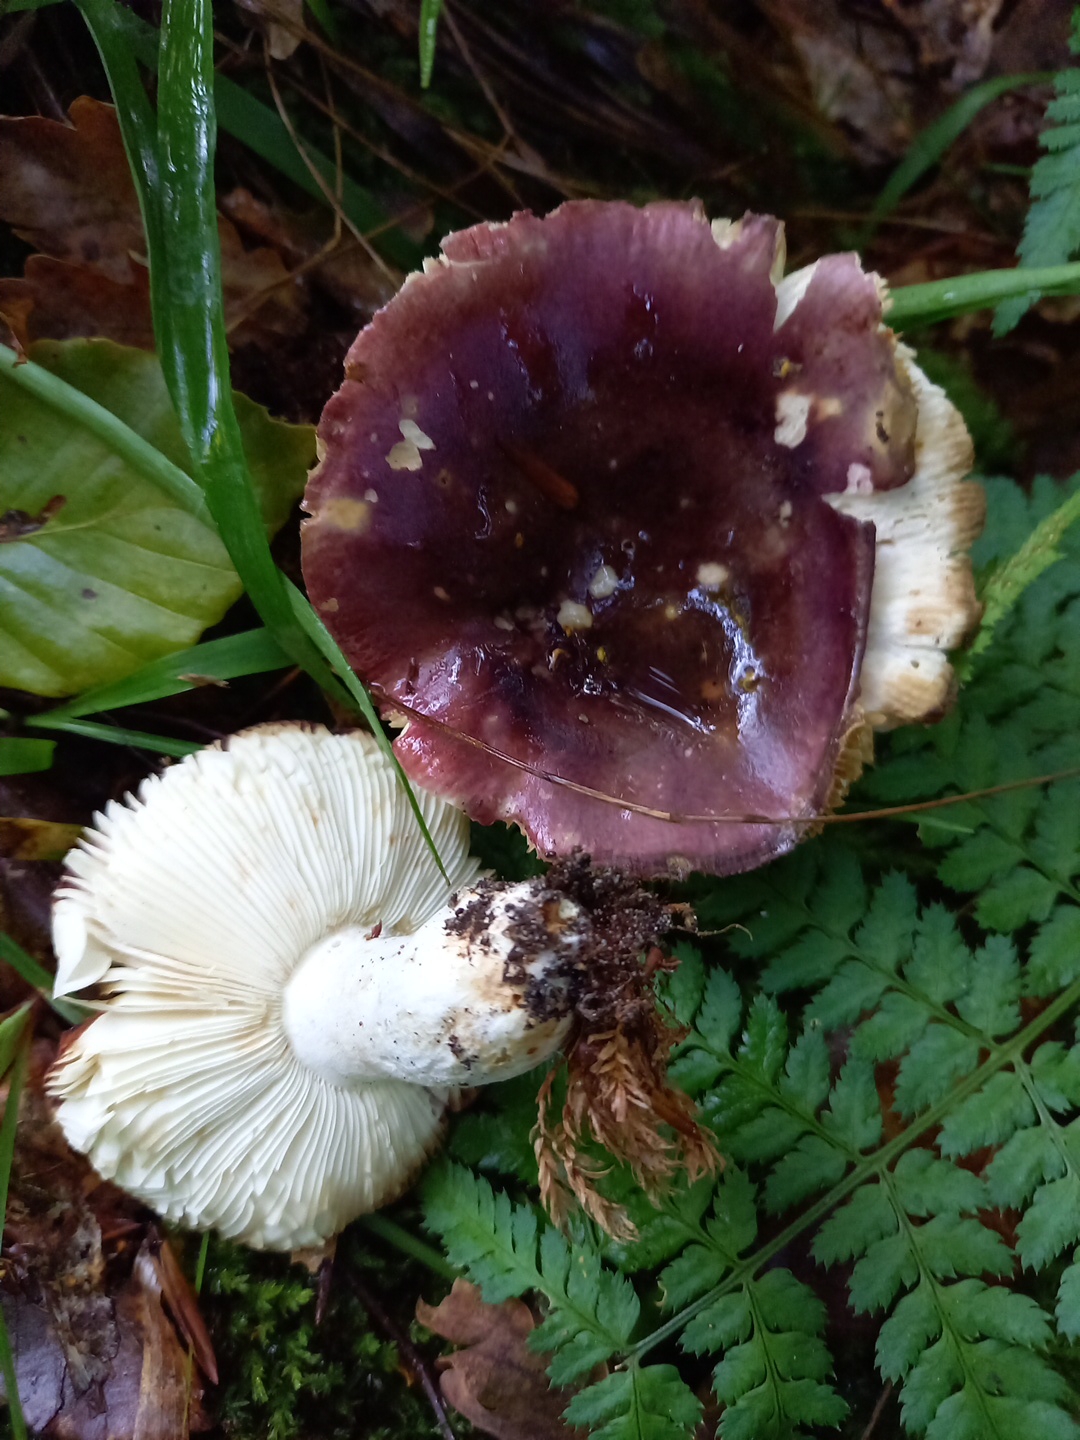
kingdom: Fungi
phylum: Basidiomycota
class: Agaricomycetes
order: Russulales
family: Russulaceae
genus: Russula
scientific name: Russula atropurpurea
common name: purpurbroget skørhat
